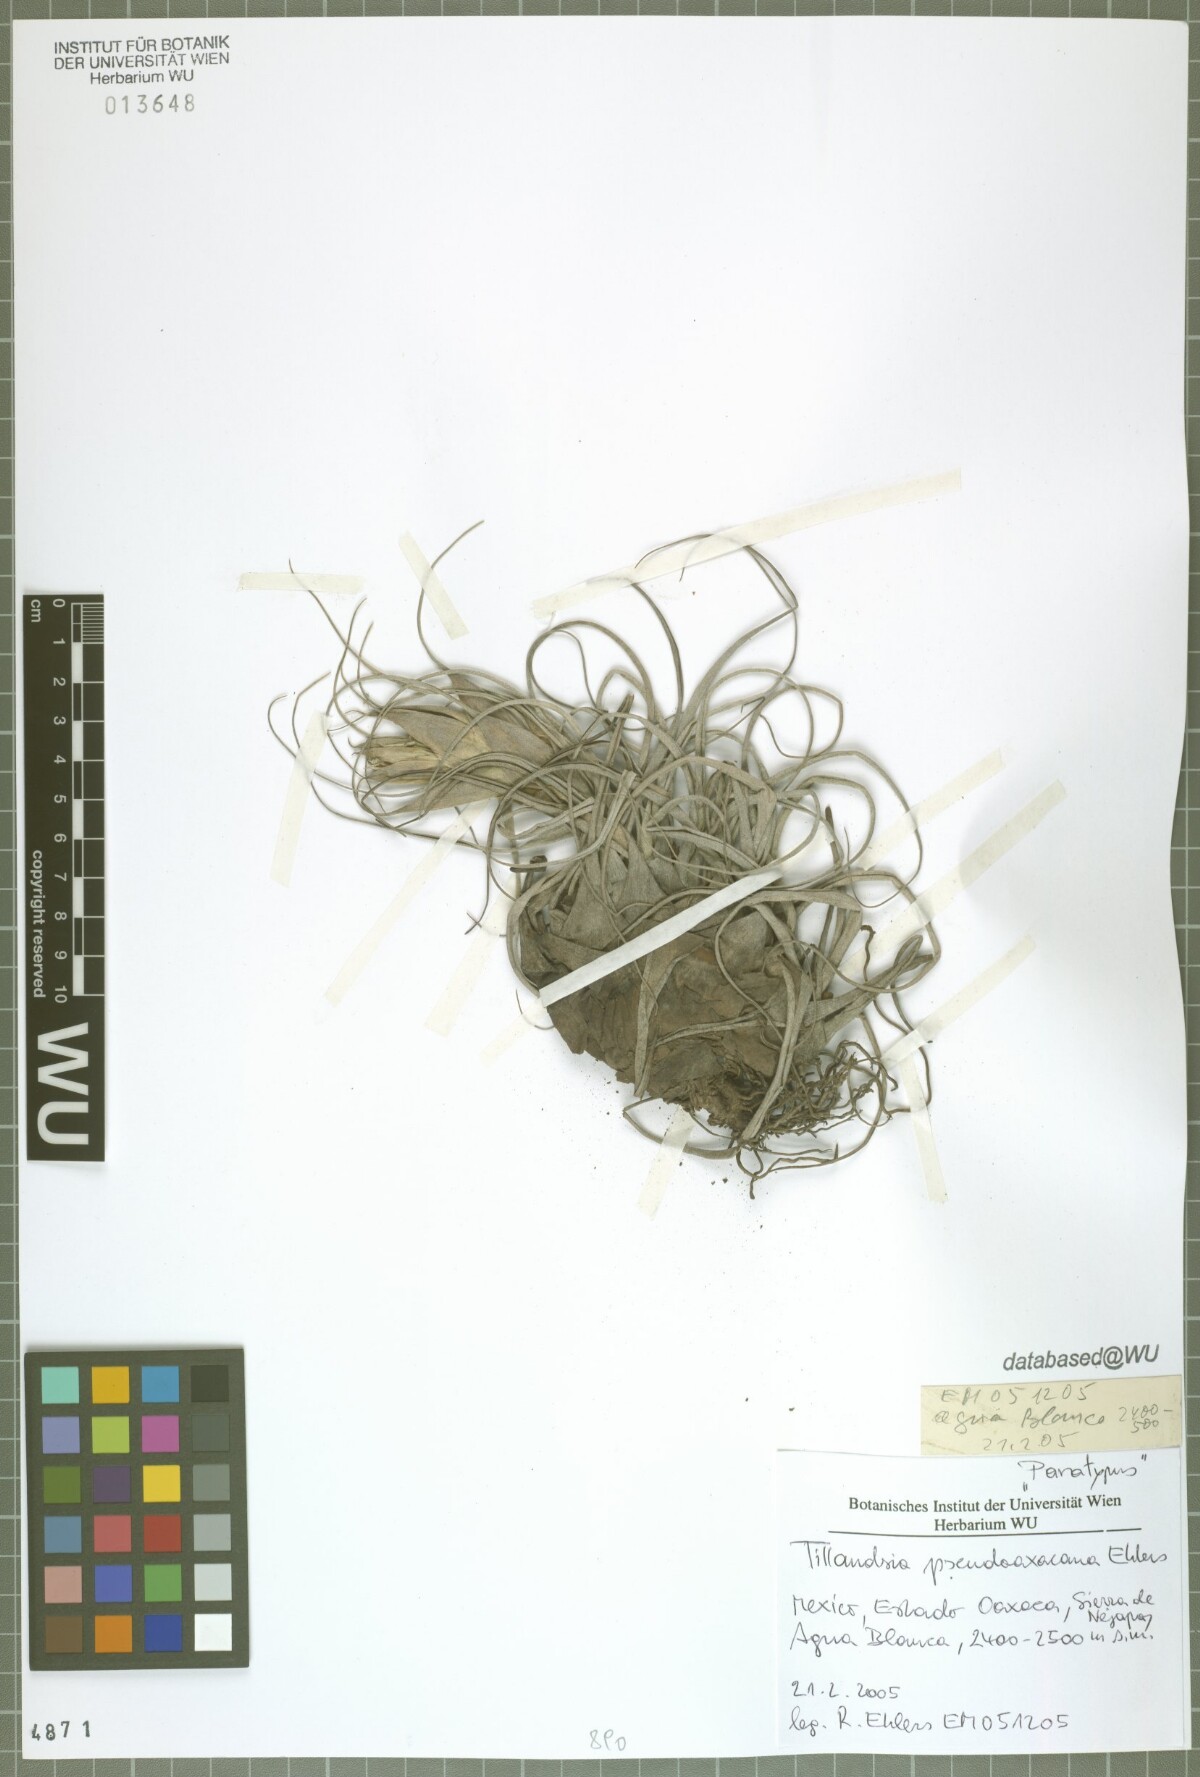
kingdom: Plantae
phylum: Tracheophyta
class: Liliopsida
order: Poales
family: Bromeliaceae
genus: Tillandsia
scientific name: Tillandsia pseudooaxacana
